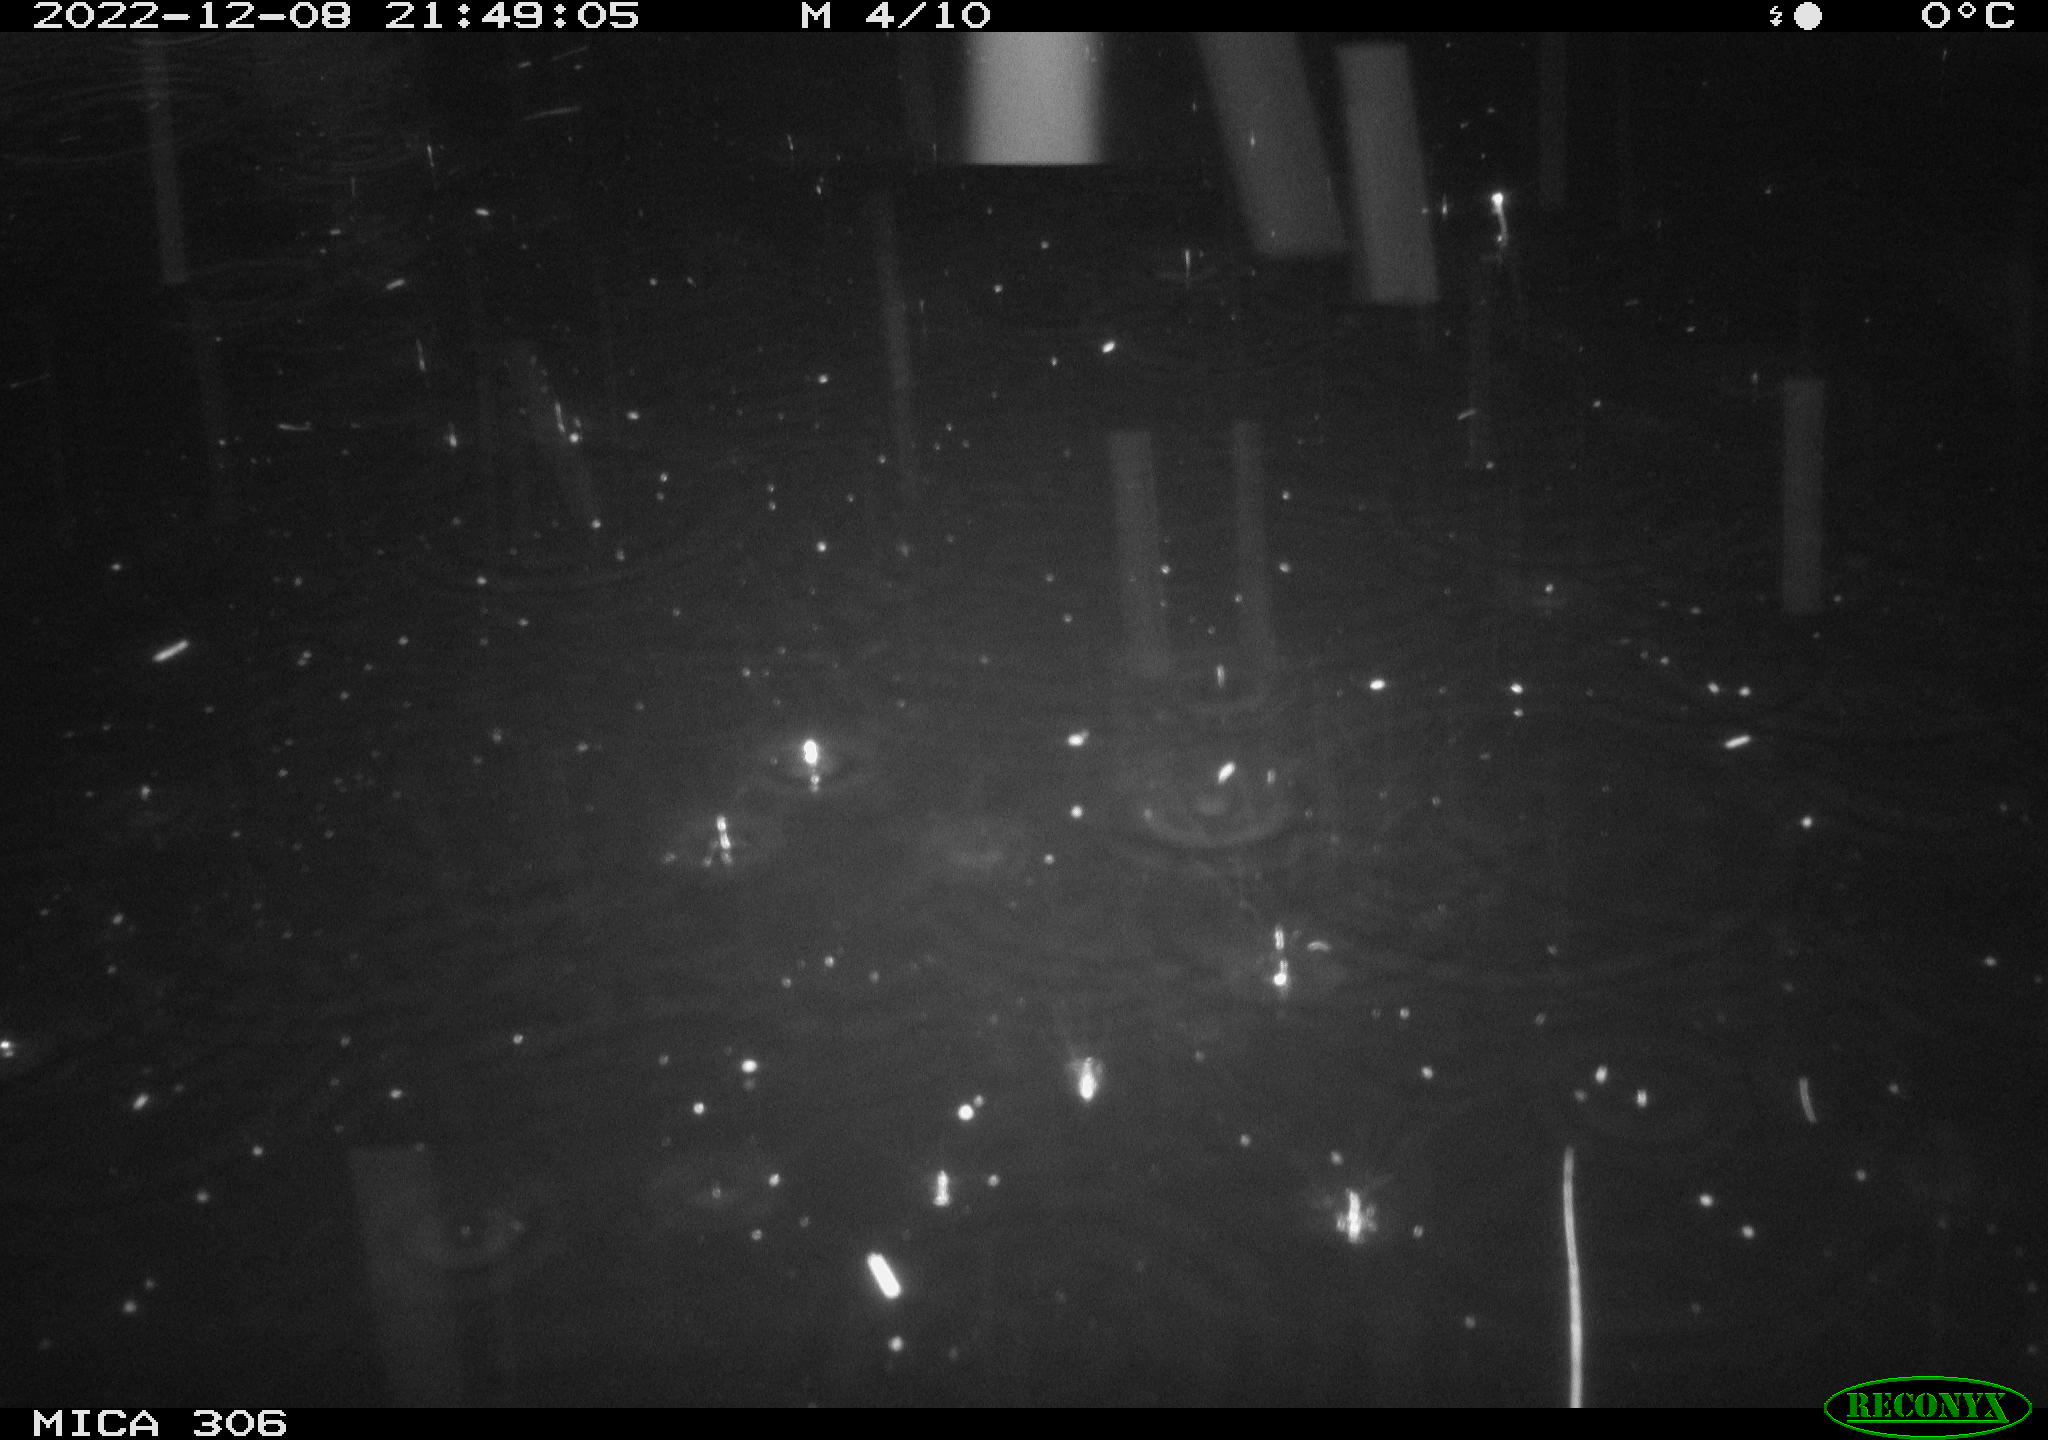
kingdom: Animalia
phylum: Chordata
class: Mammalia
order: Rodentia
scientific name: Rodentia
